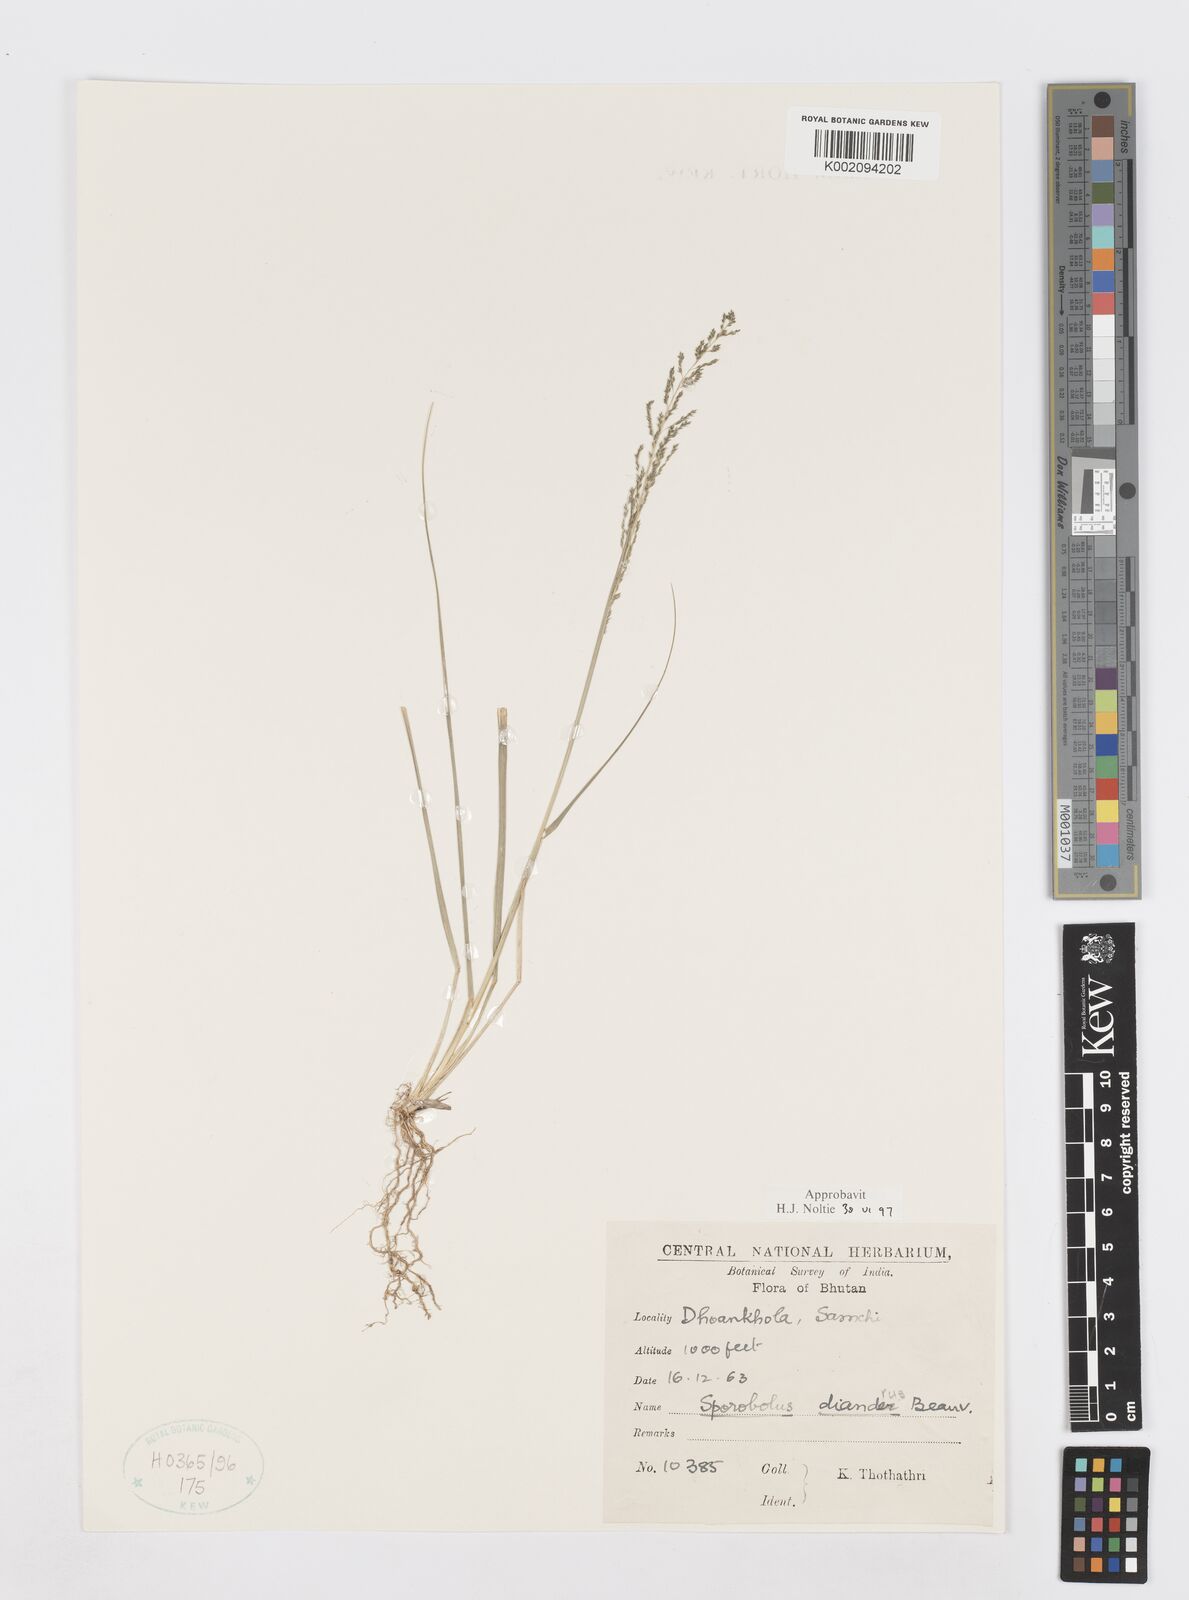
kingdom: Plantae
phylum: Tracheophyta
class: Liliopsida
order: Poales
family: Poaceae
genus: Sporobolus
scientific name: Sporobolus diandrus
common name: Tussock dropseed
